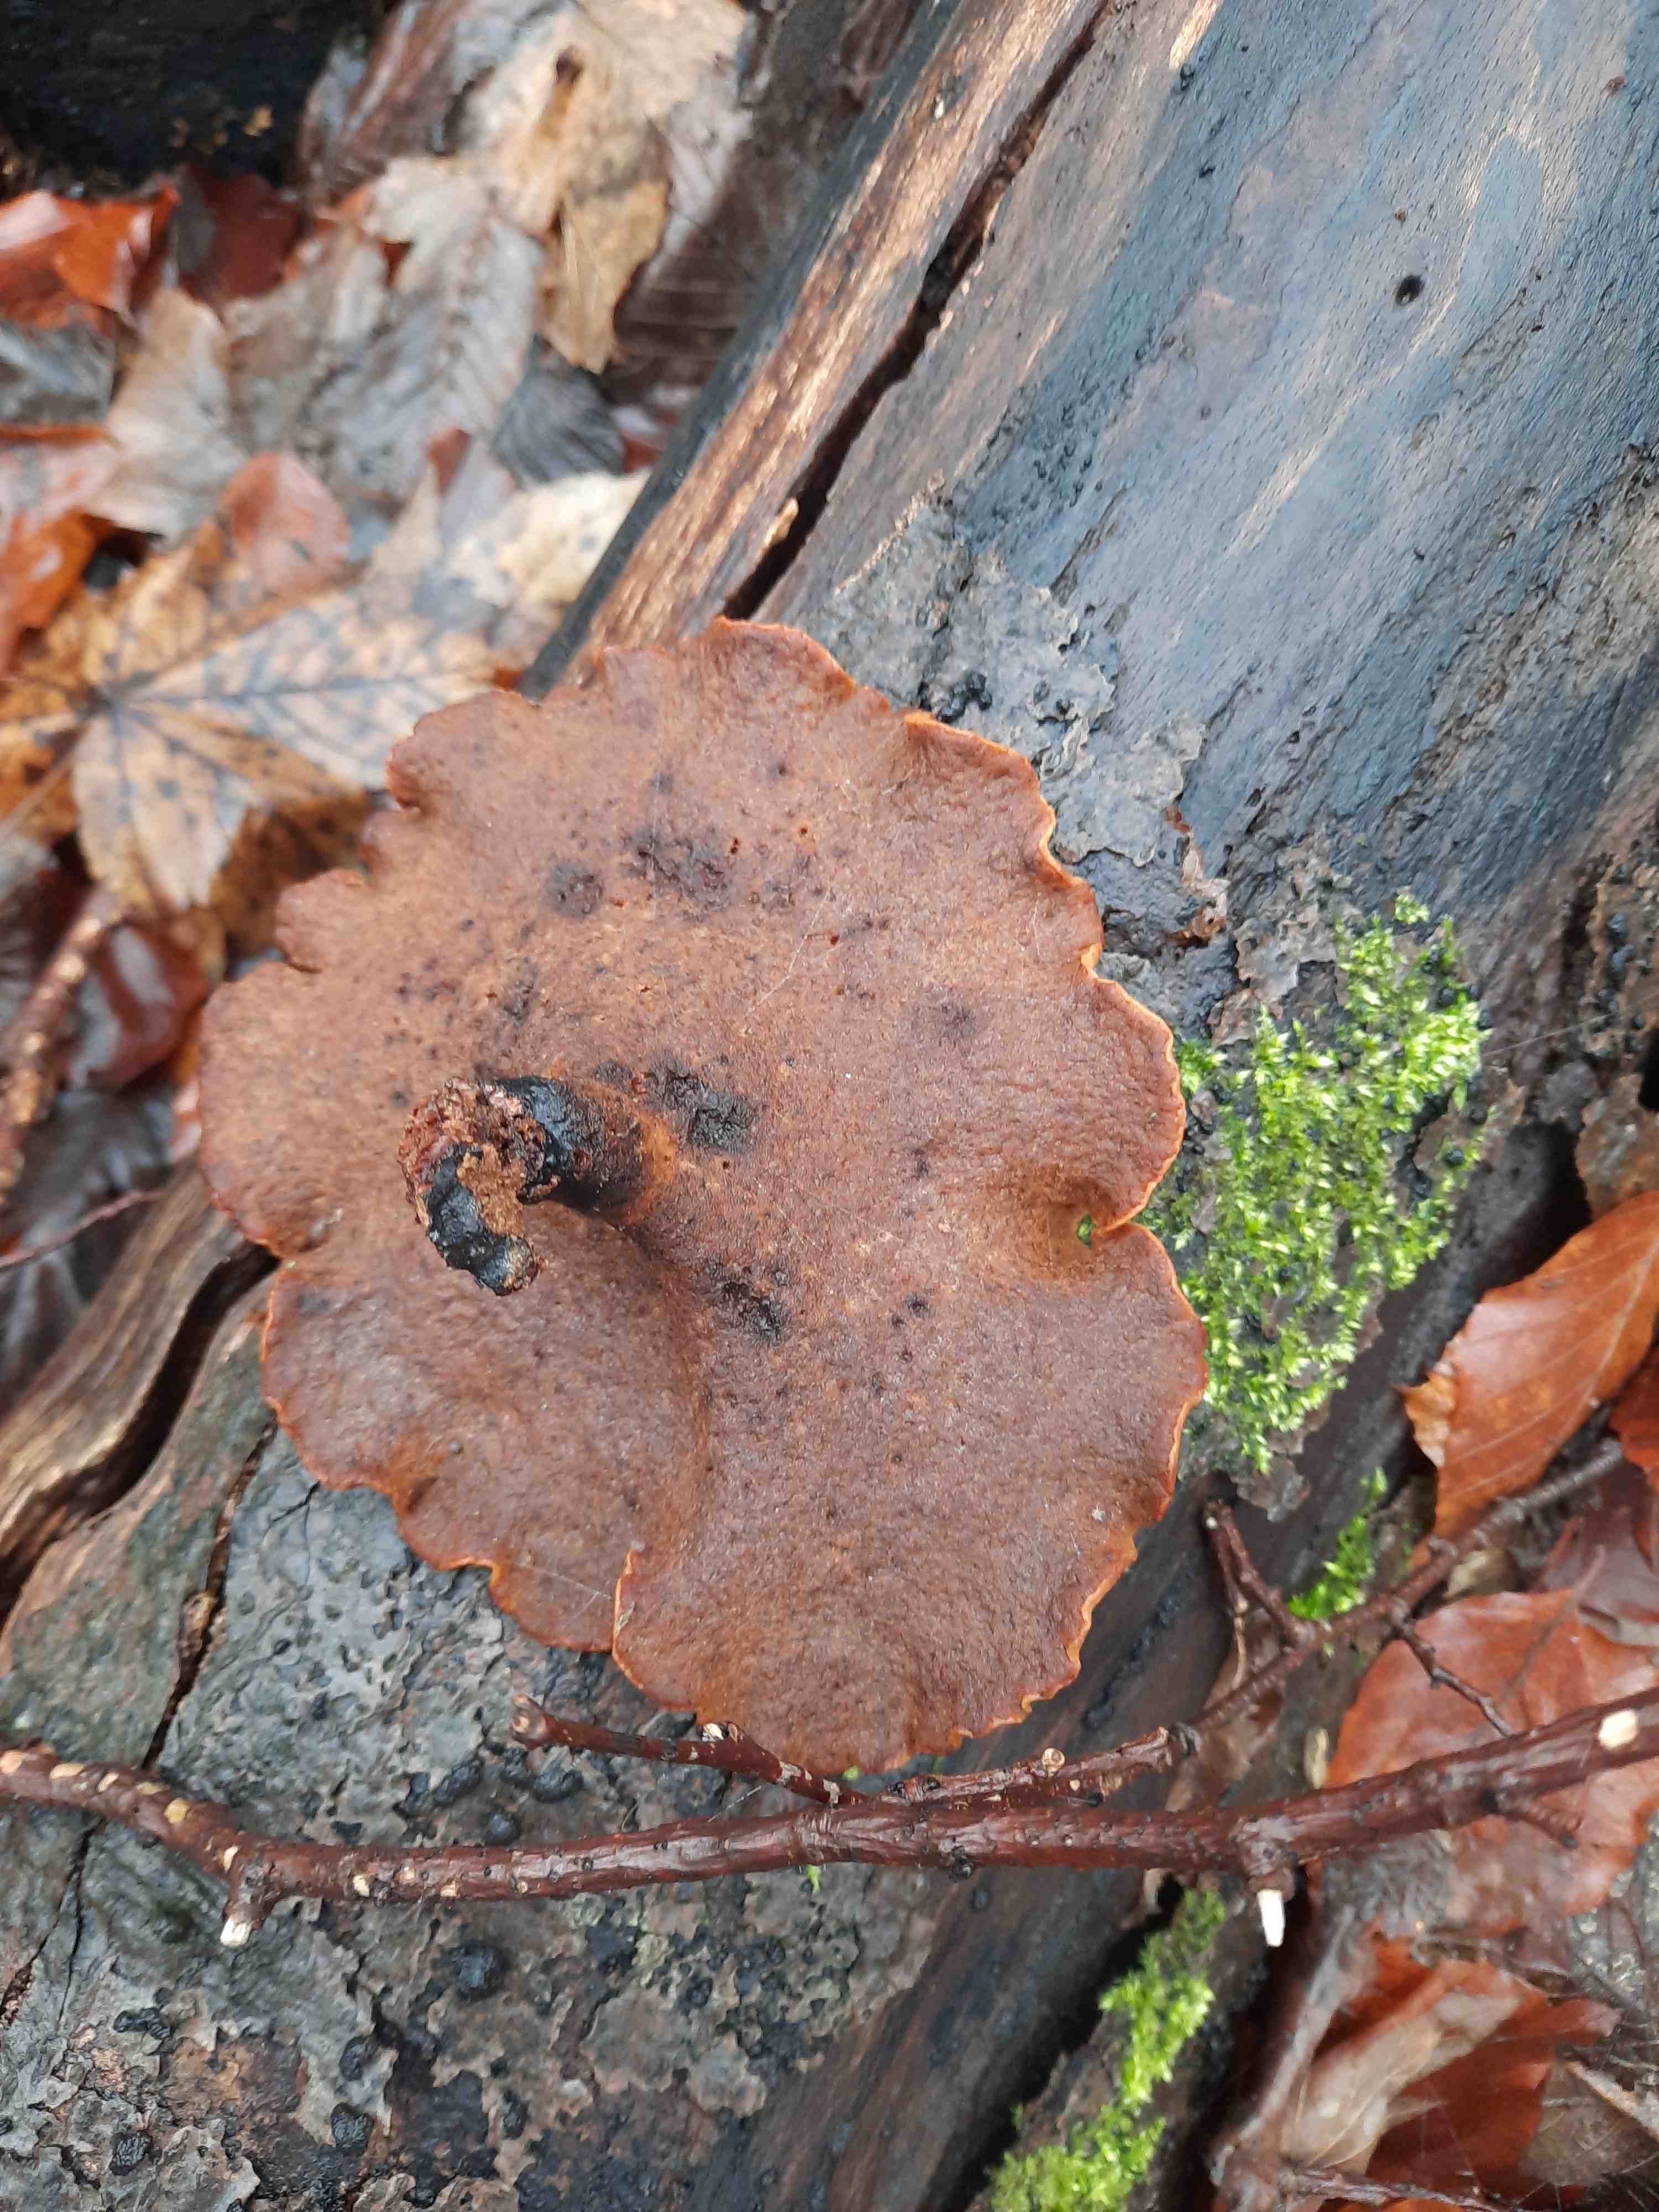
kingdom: Fungi
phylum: Basidiomycota
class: Agaricomycetes
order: Polyporales
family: Polyporaceae
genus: Cerioporus
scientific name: Cerioporus varius
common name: foranderlig stilkporesvamp
